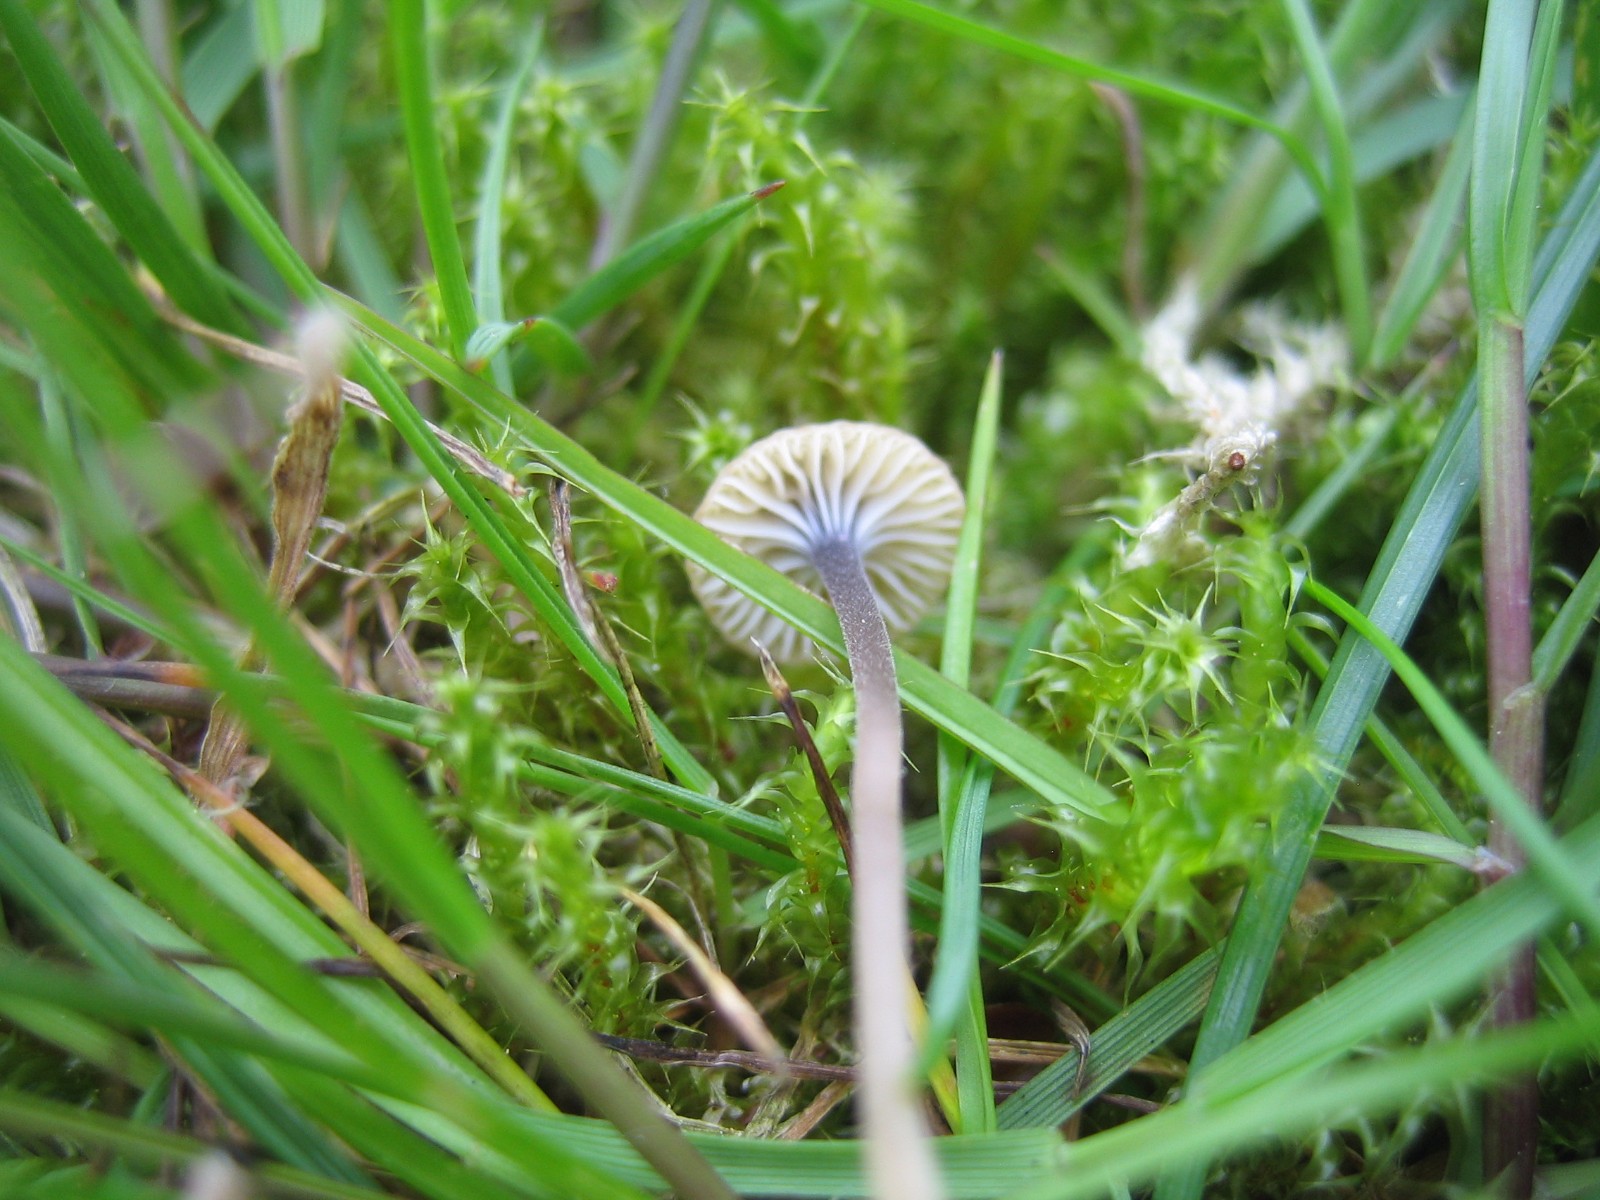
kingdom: Fungi
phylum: Basidiomycota
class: Agaricomycetes
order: Hymenochaetales
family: Rickenellaceae
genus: Rickenella
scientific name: Rickenella swartzii
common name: finstokket mosnavlehat
